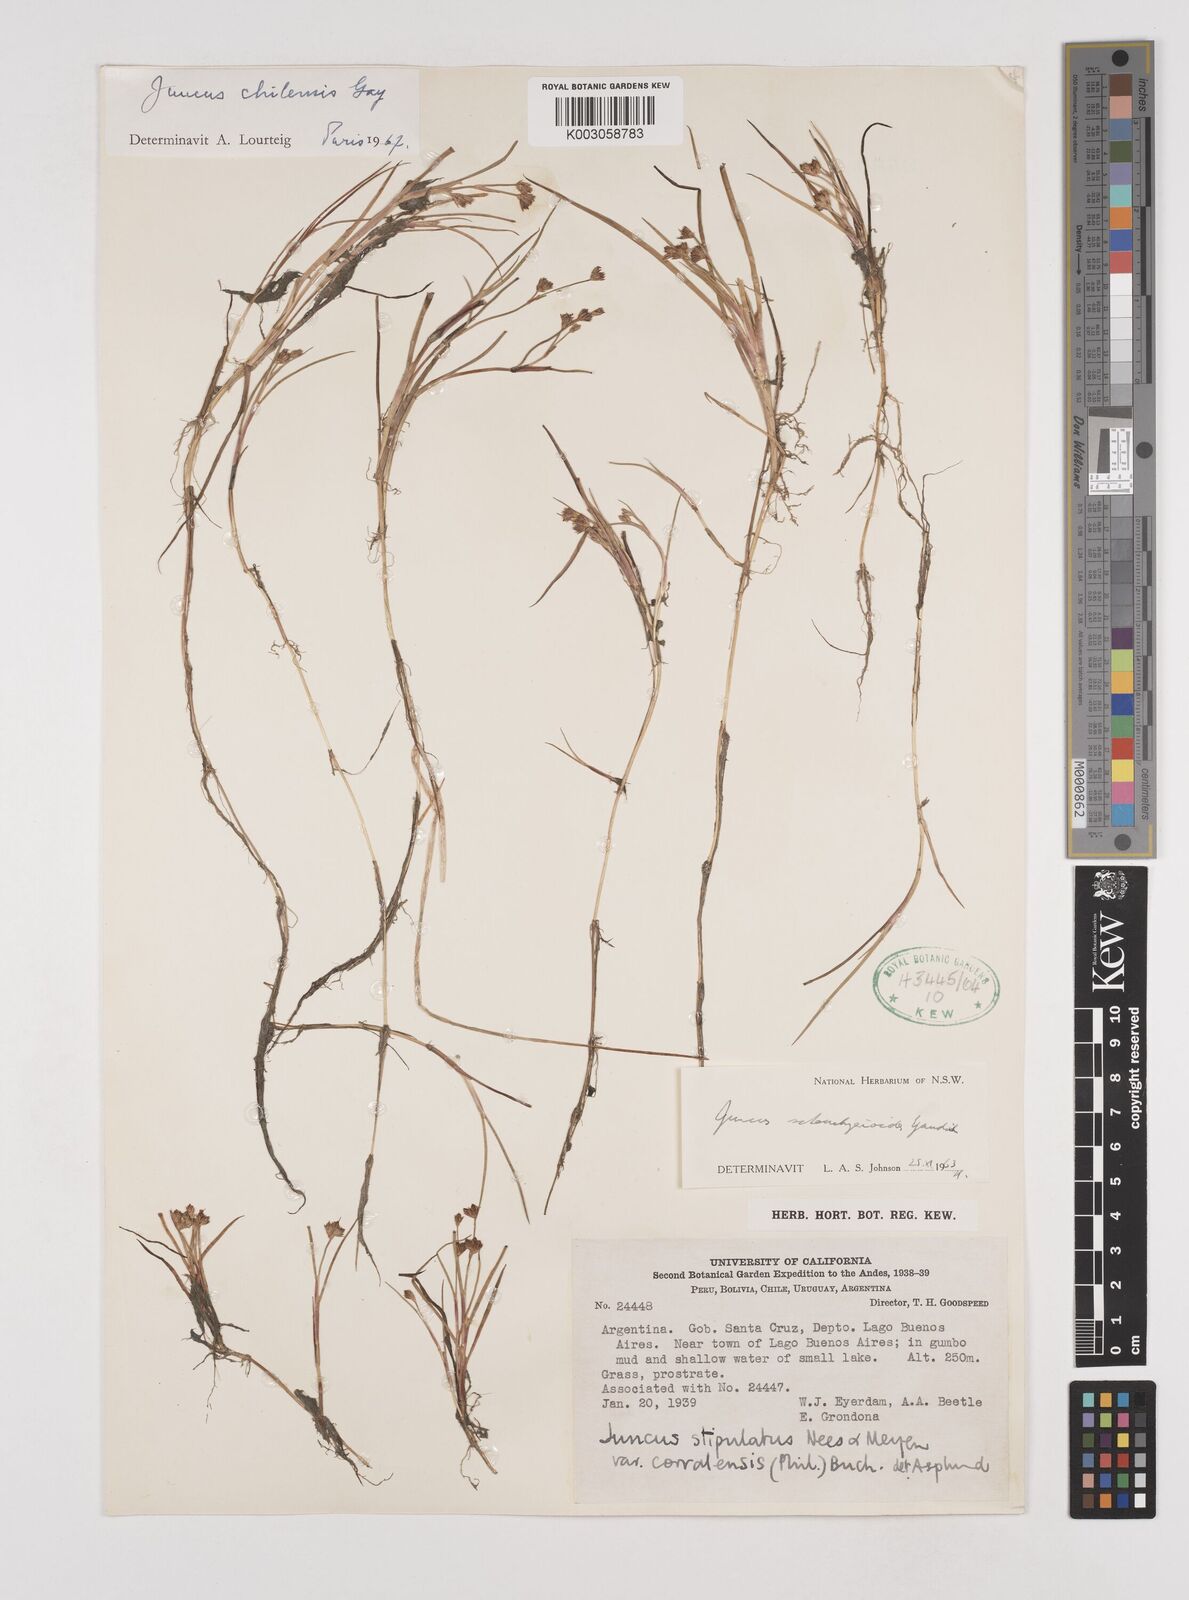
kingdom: Plantae
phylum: Tracheophyta
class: Liliopsida
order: Poales
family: Juncaceae
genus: Juncus
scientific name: Juncus scheuchzerioides
